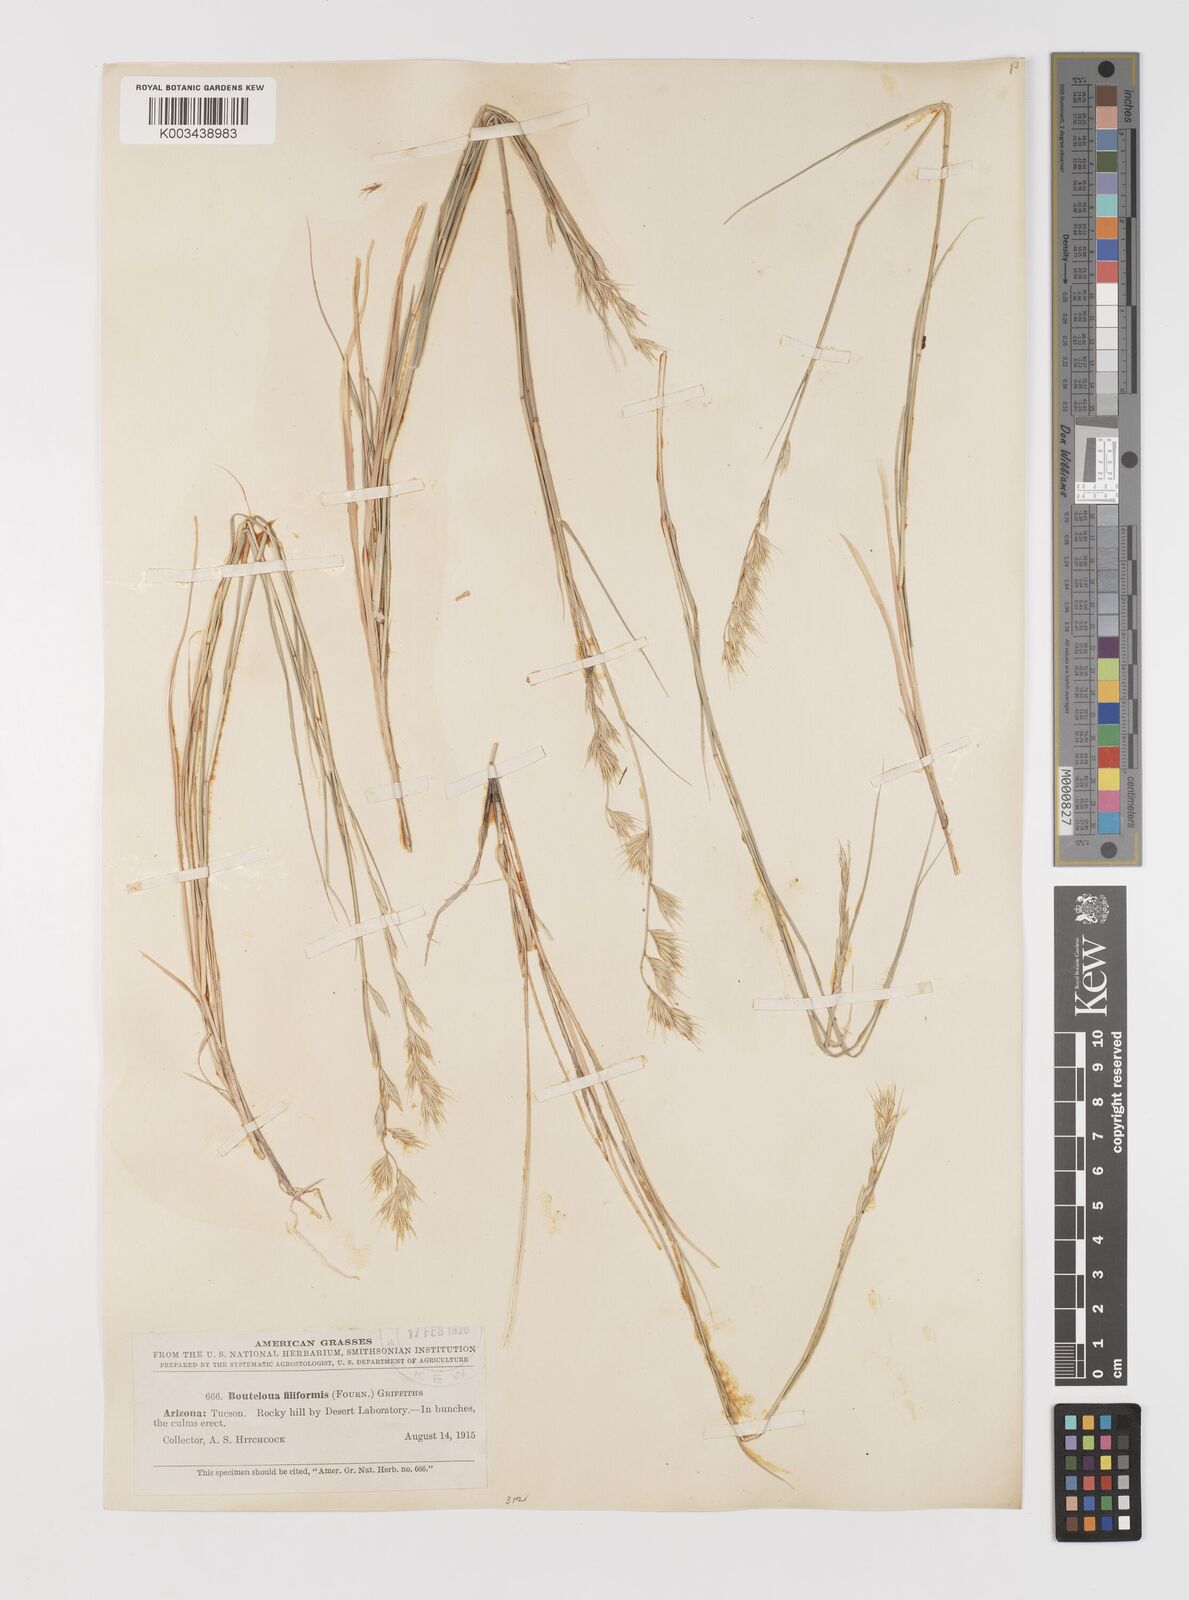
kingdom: Plantae
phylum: Tracheophyta
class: Liliopsida
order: Poales
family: Poaceae
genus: Bouteloua
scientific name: Bouteloua repens
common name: Slender grama
